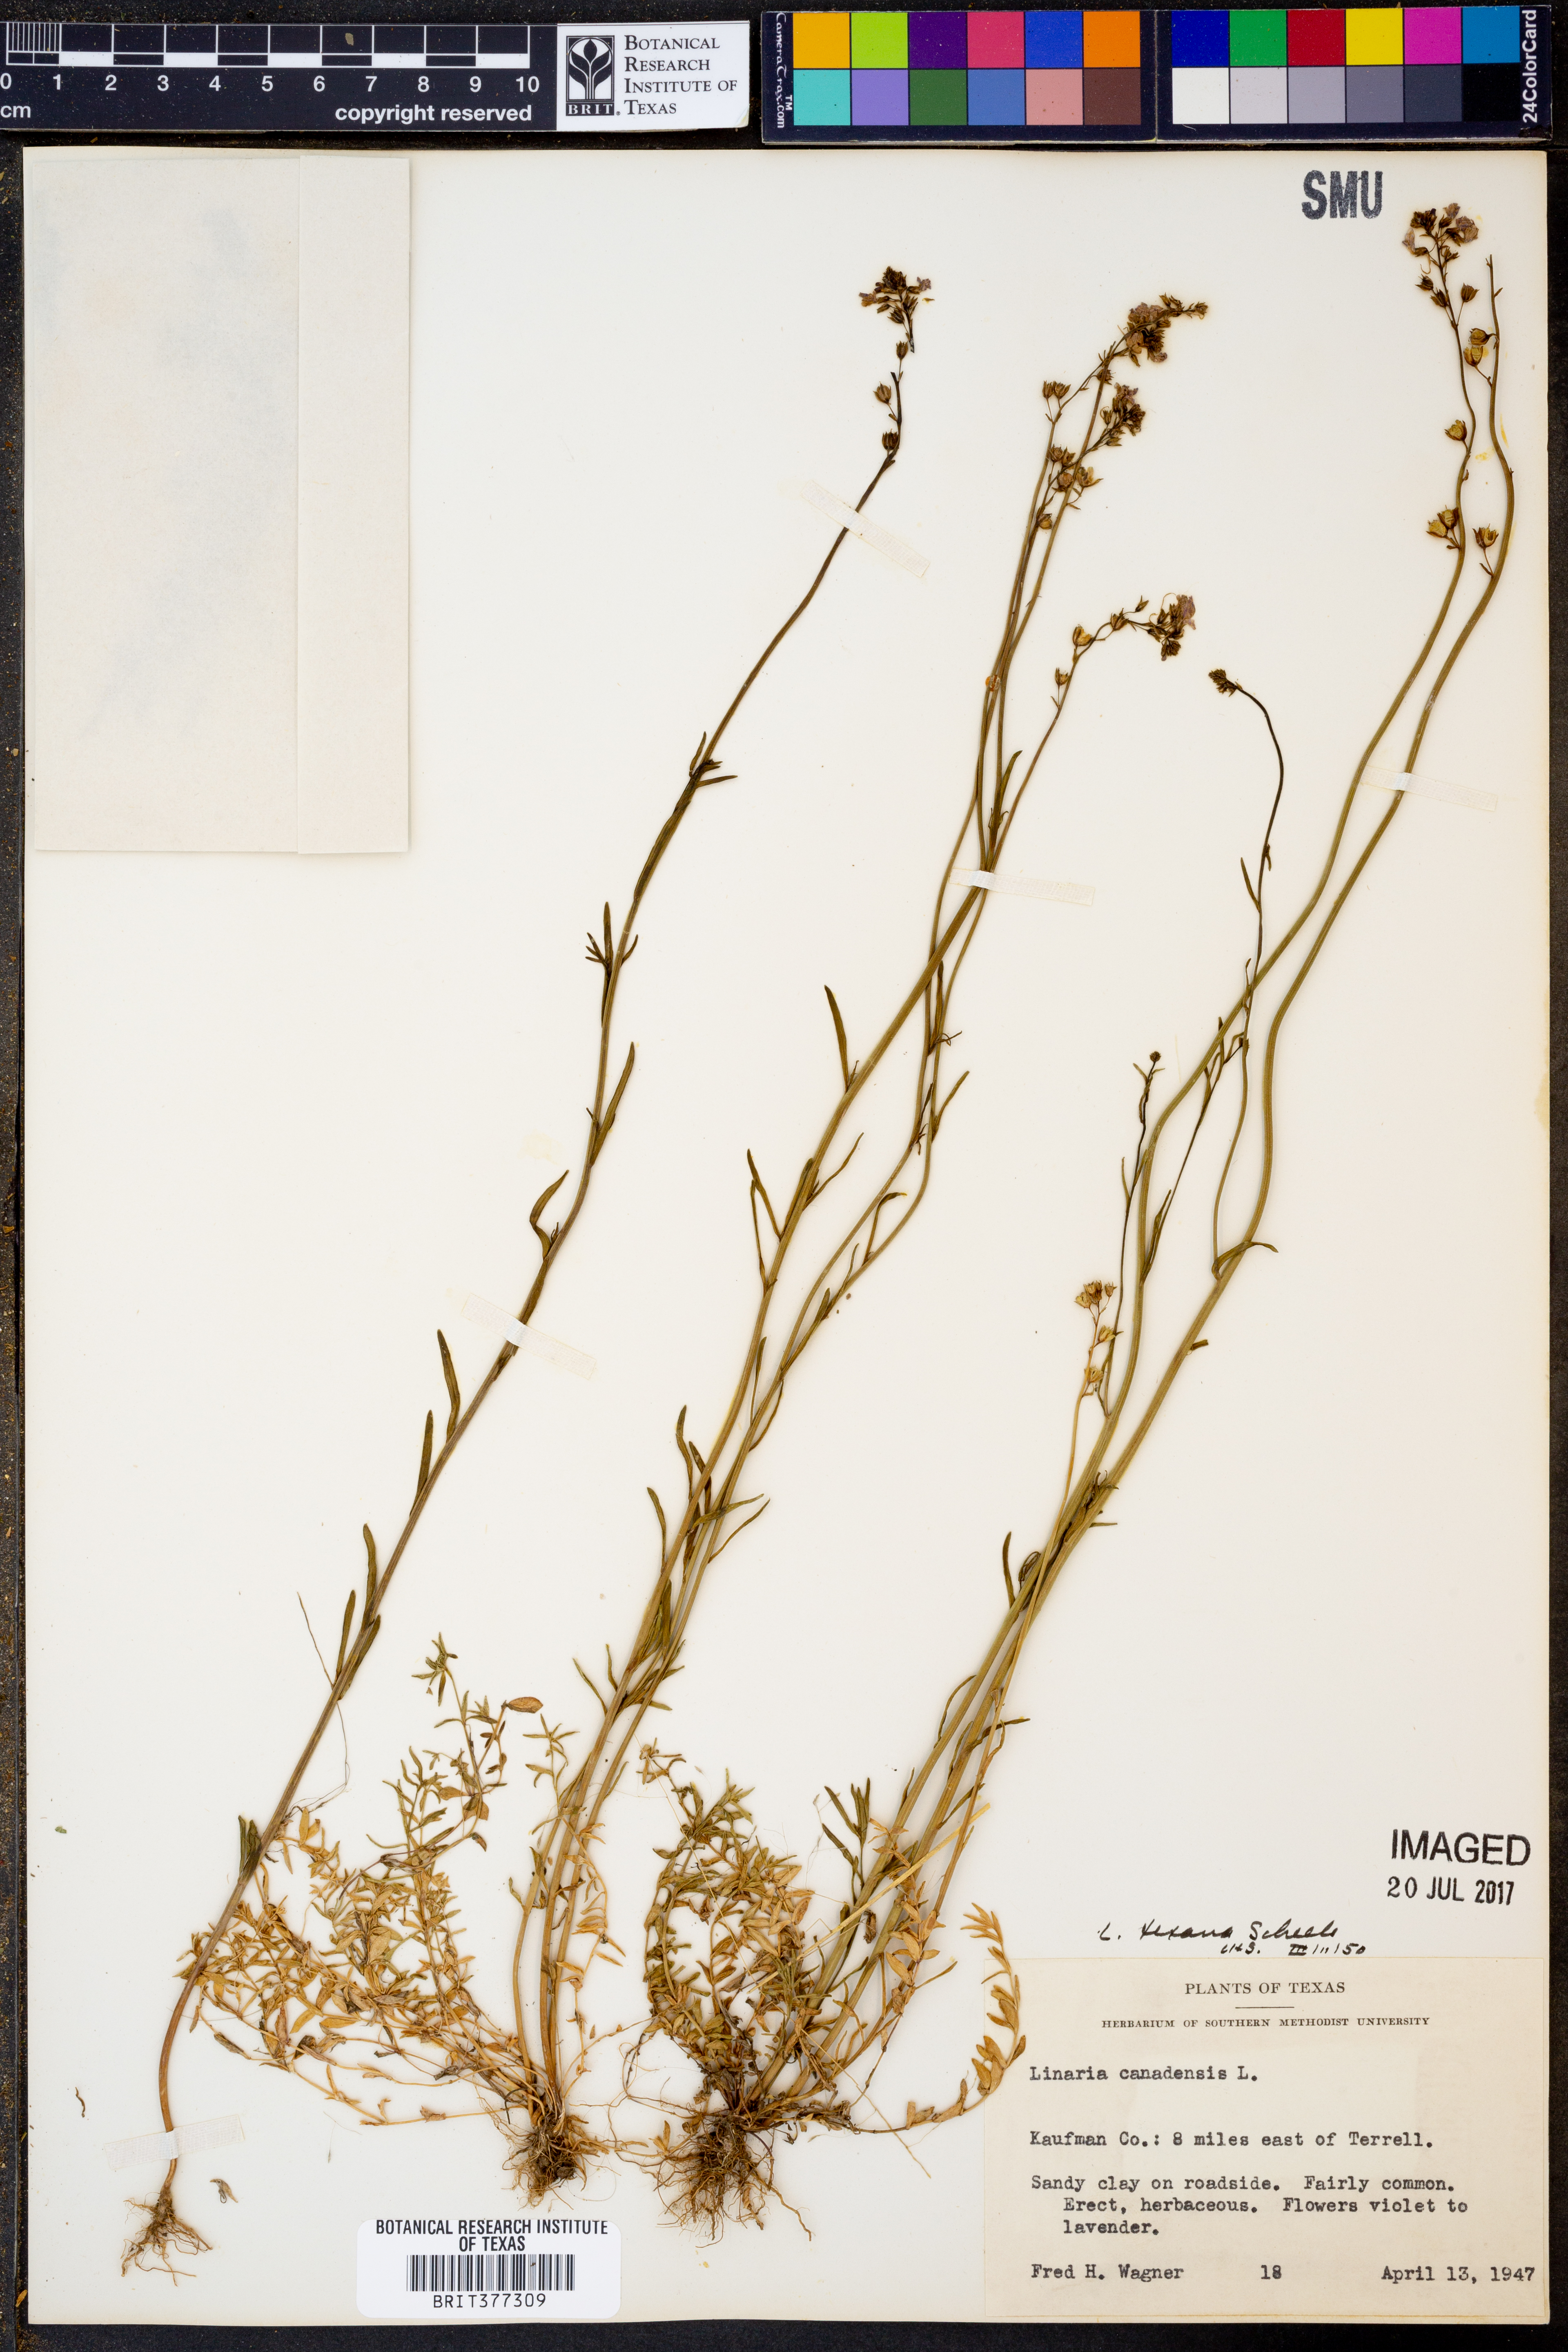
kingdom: Plantae
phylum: Tracheophyta
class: Magnoliopsida
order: Lamiales
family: Plantaginaceae
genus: Nuttallanthus
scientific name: Nuttallanthus texanus
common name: Texas toadflax
